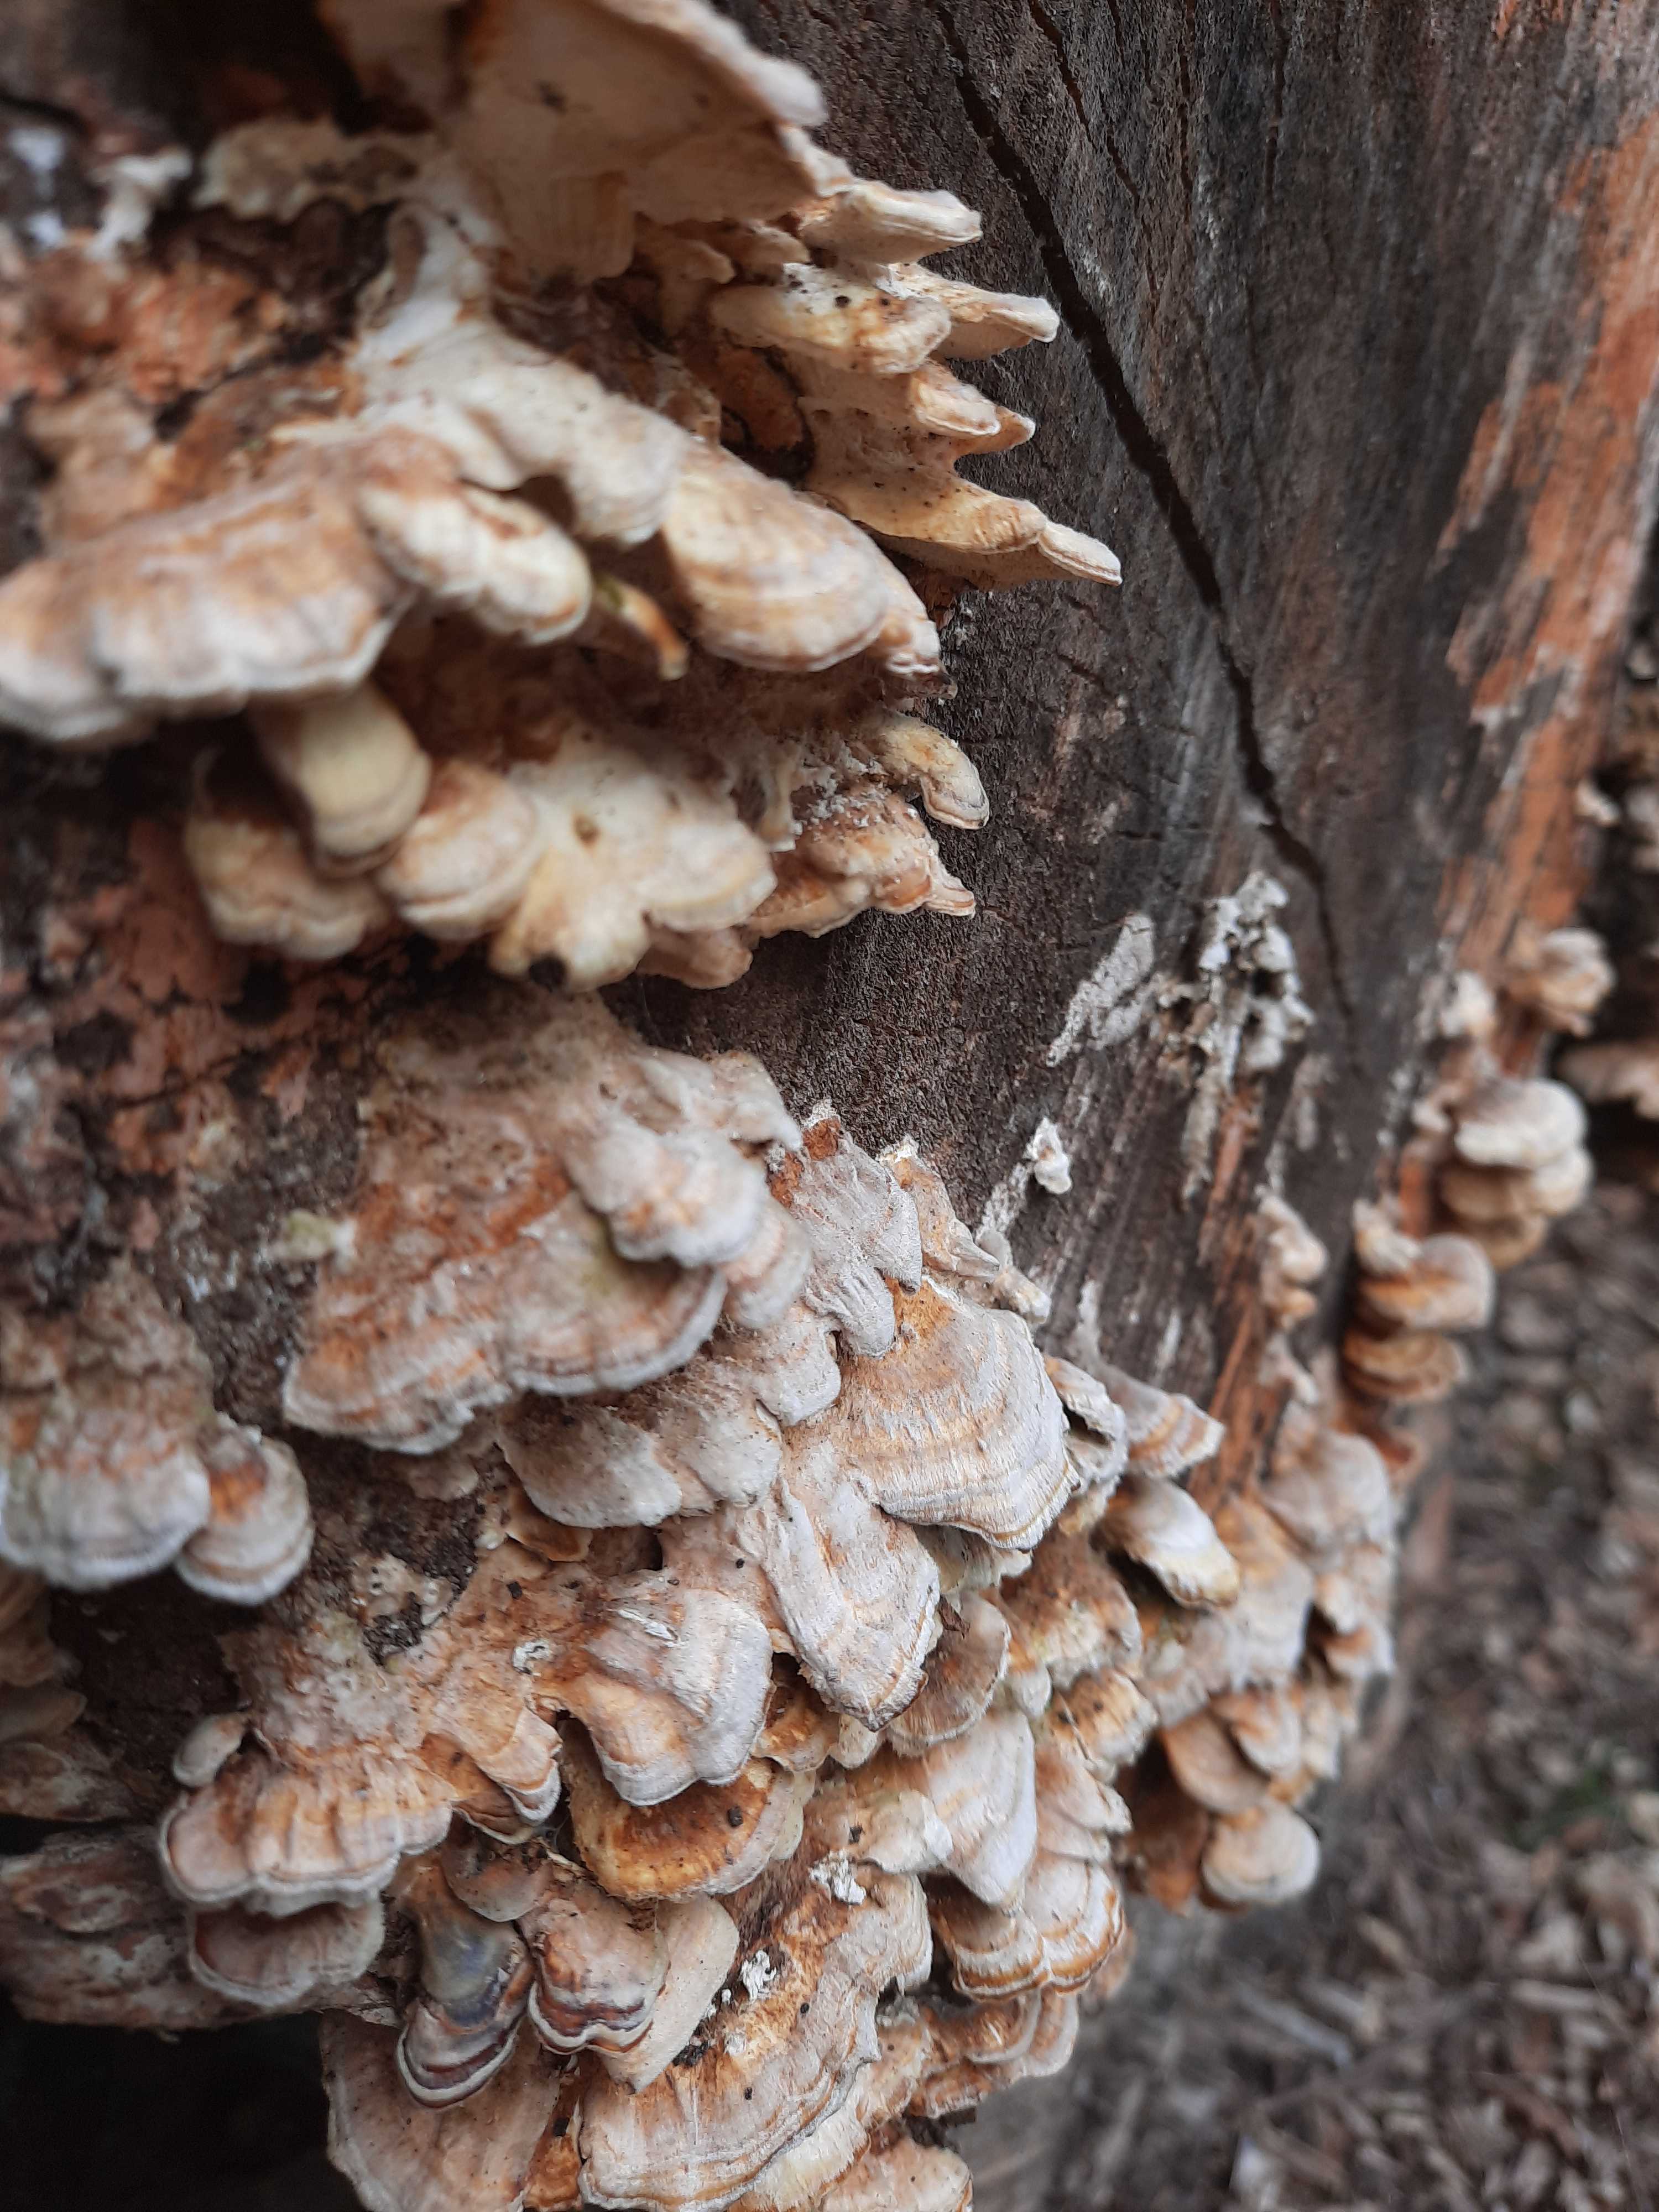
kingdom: Fungi
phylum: Basidiomycota
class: Agaricomycetes
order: Polyporales
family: Polyporaceae
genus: Trametes
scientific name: Trametes ochracea
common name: bæltet læderporesvamp
